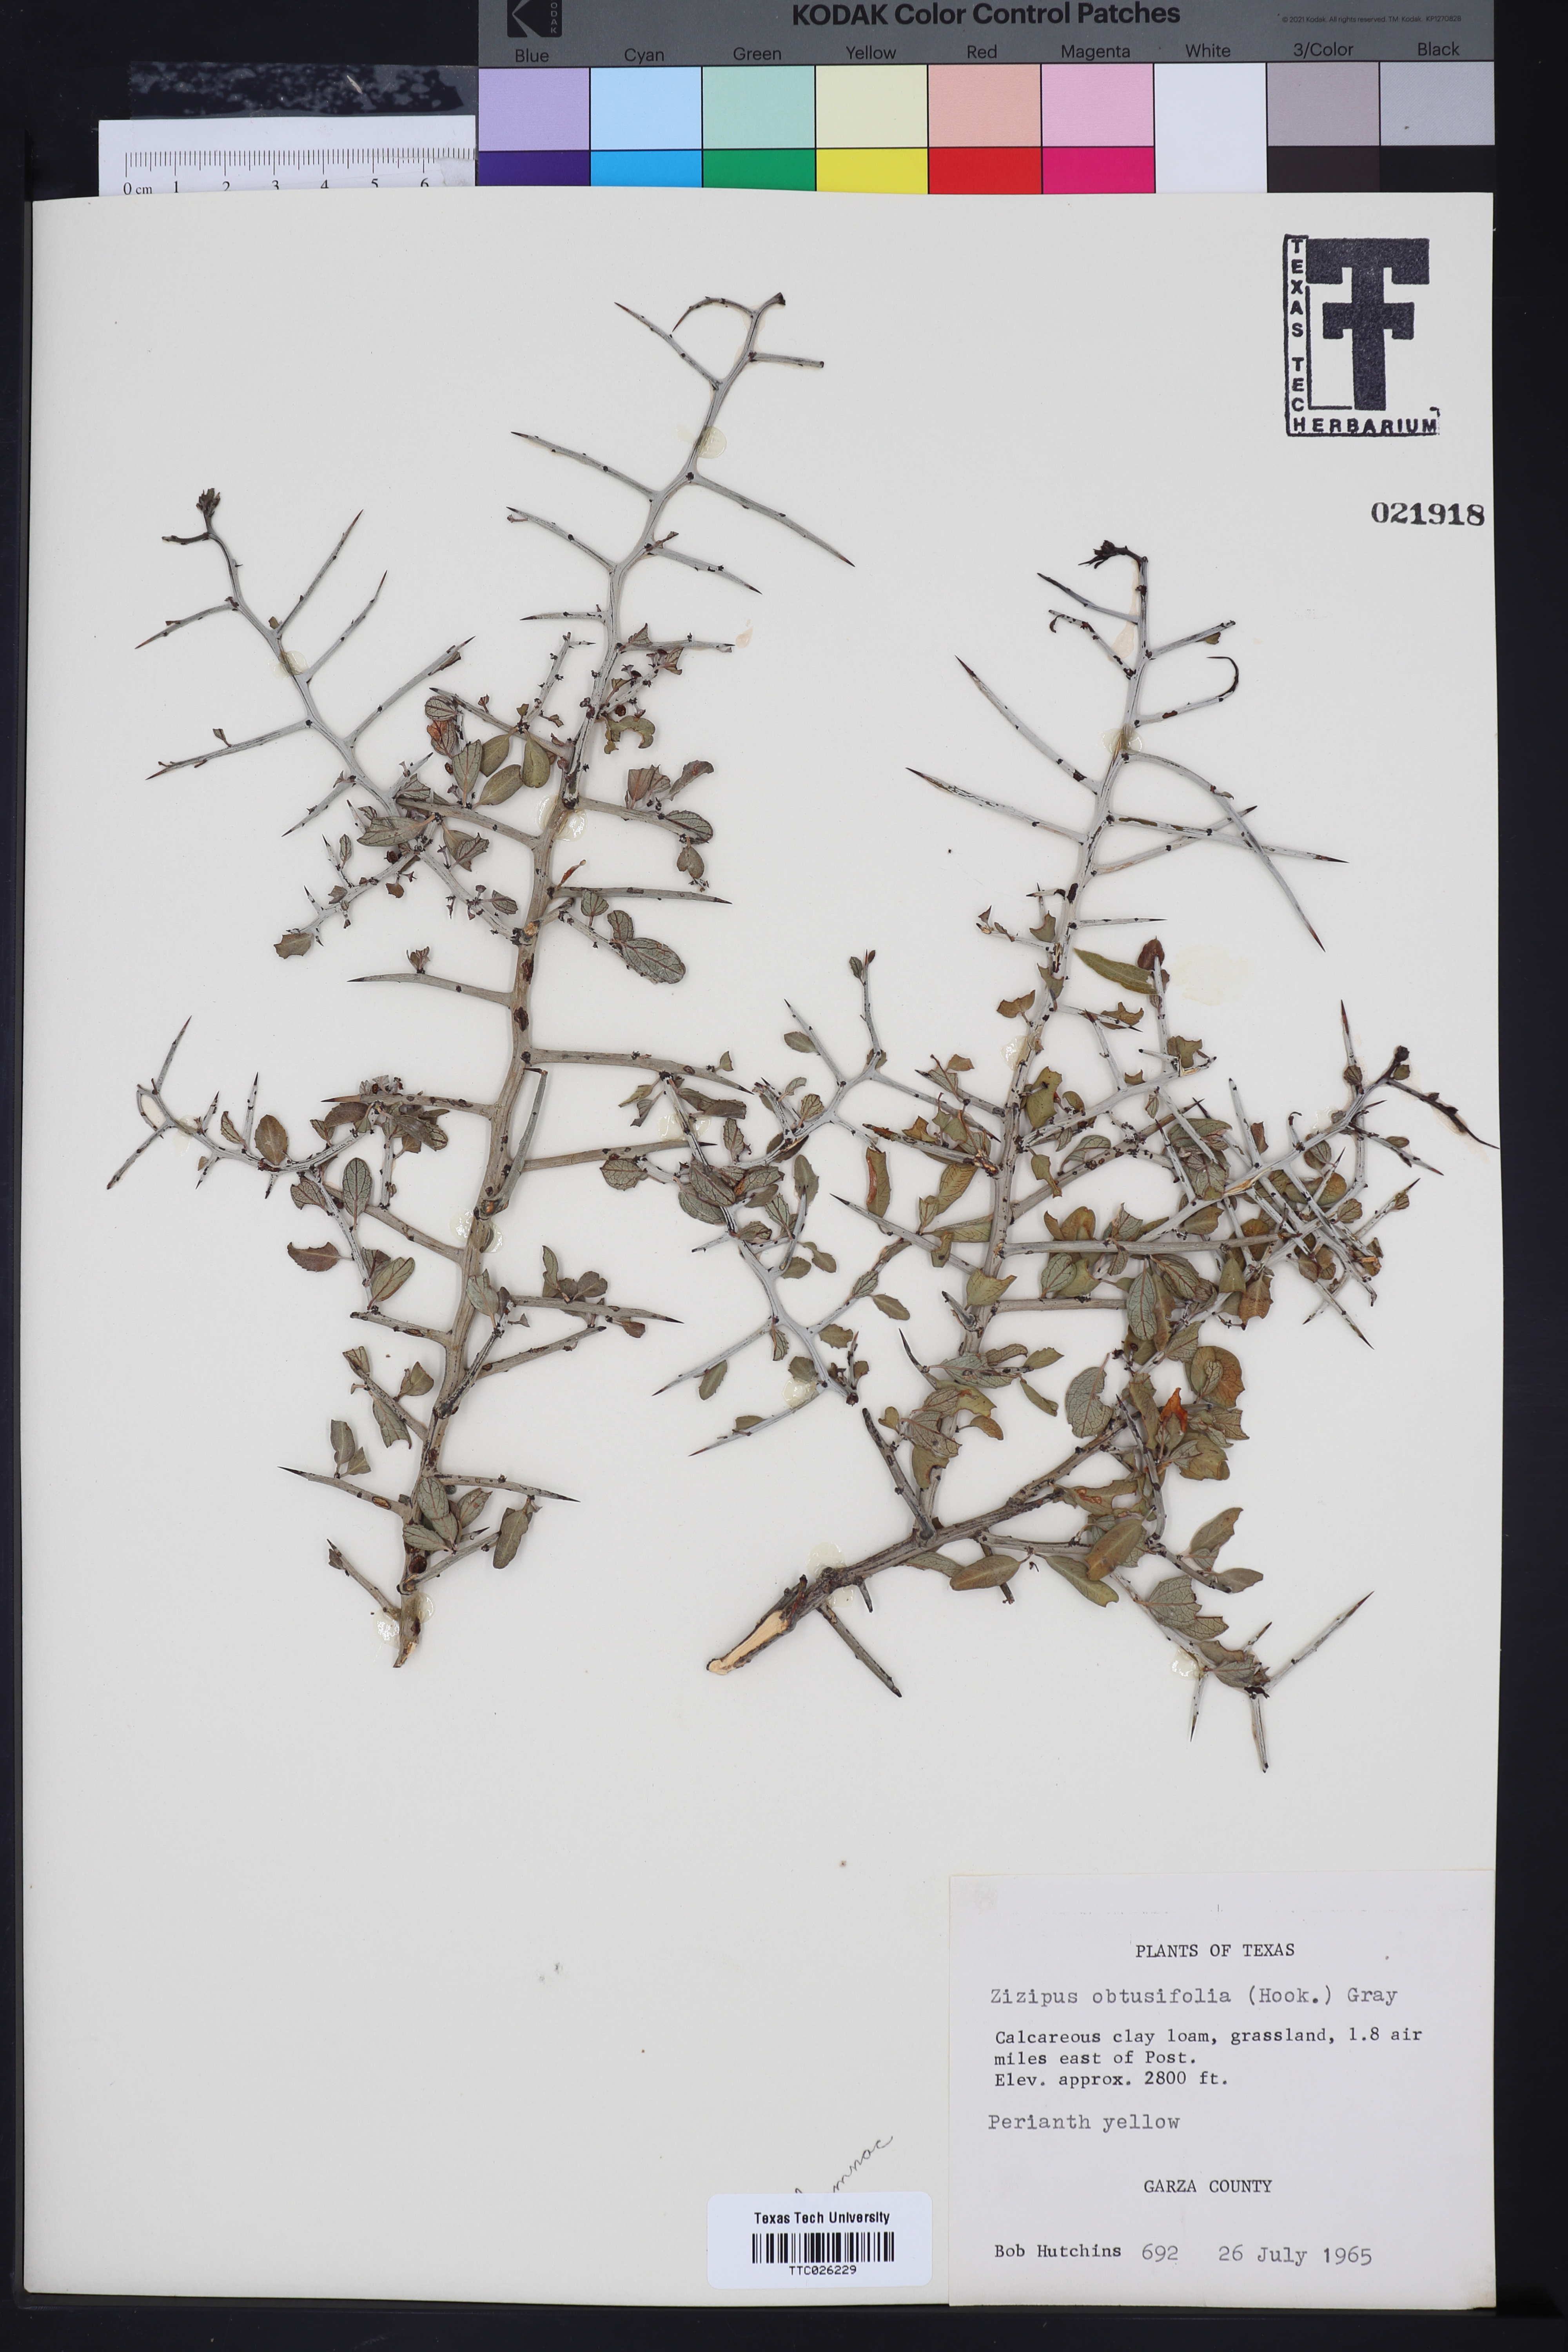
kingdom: Plantae
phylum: Tracheophyta
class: Magnoliopsida
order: Rosales
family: Rhamnaceae
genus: Sarcomphalus
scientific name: Sarcomphalus obtusifolius
